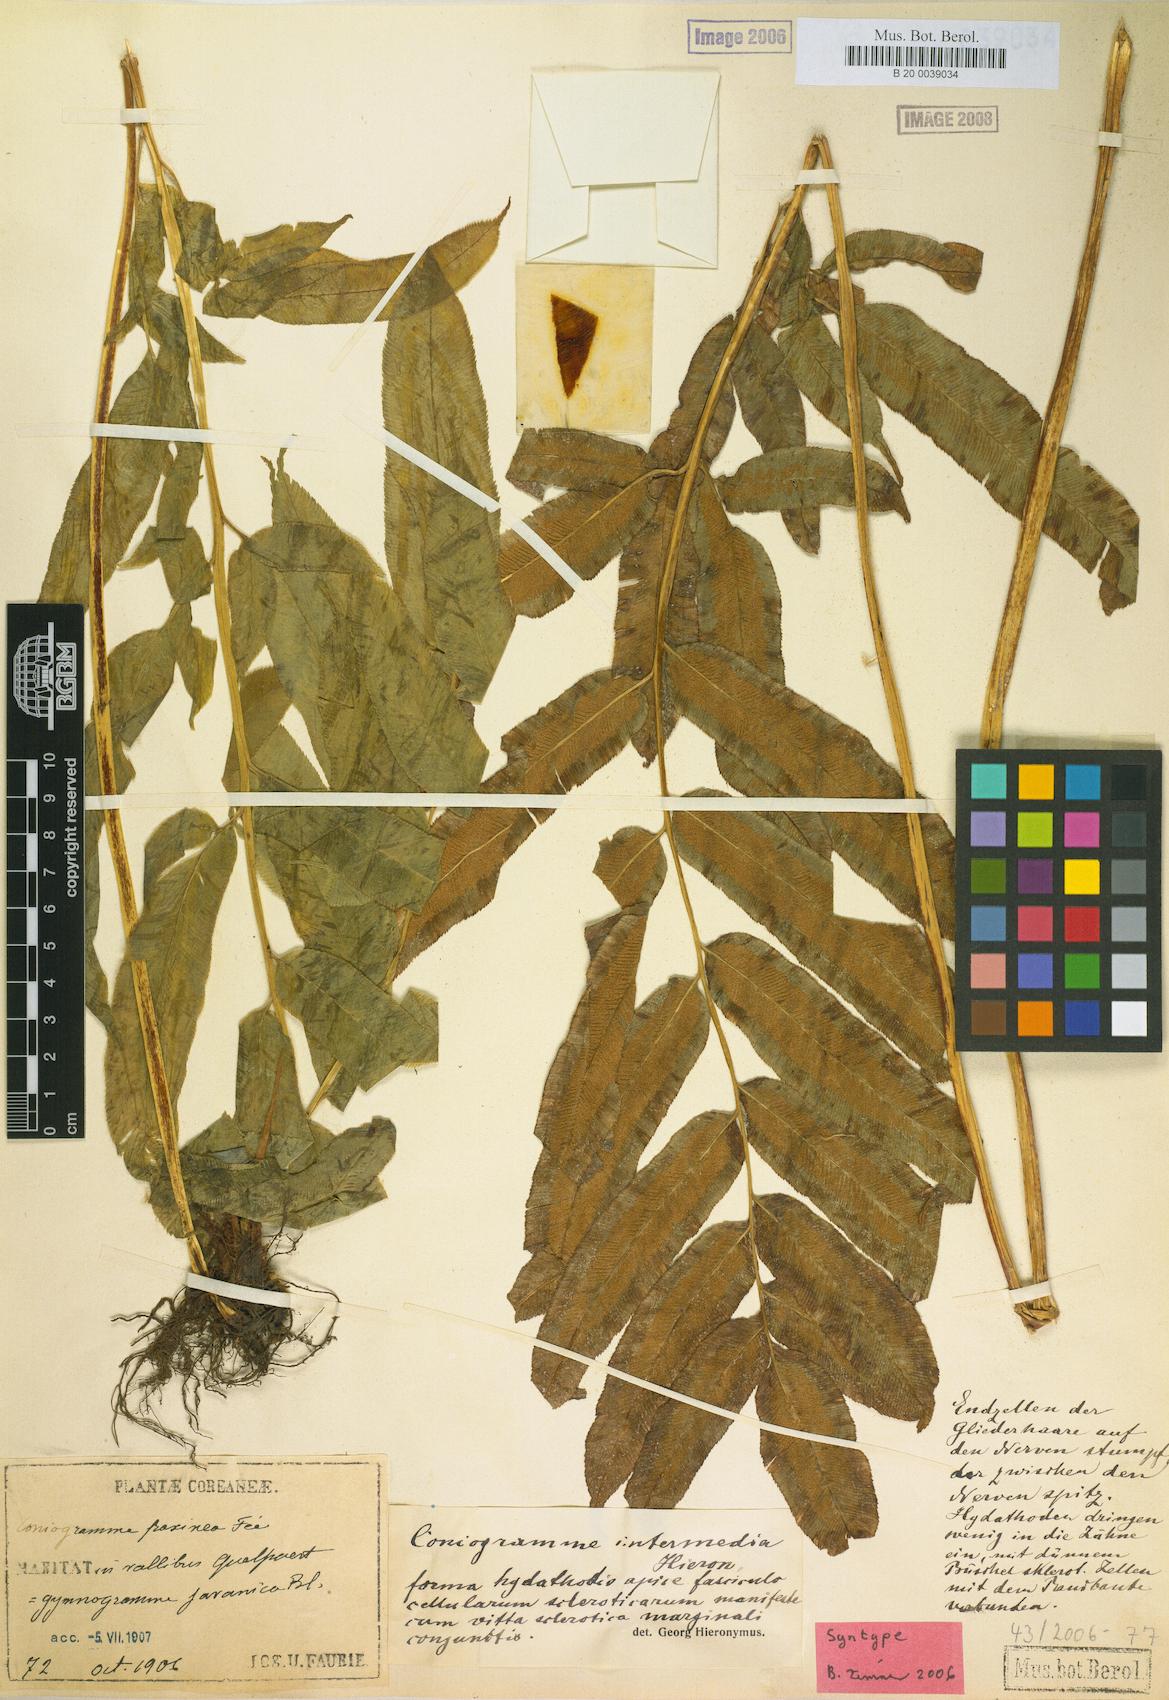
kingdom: Plantae
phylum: Tracheophyta
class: Polypodiopsida
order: Polypodiales
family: Pteridaceae
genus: Coniogramme
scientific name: Coniogramme intermedia
